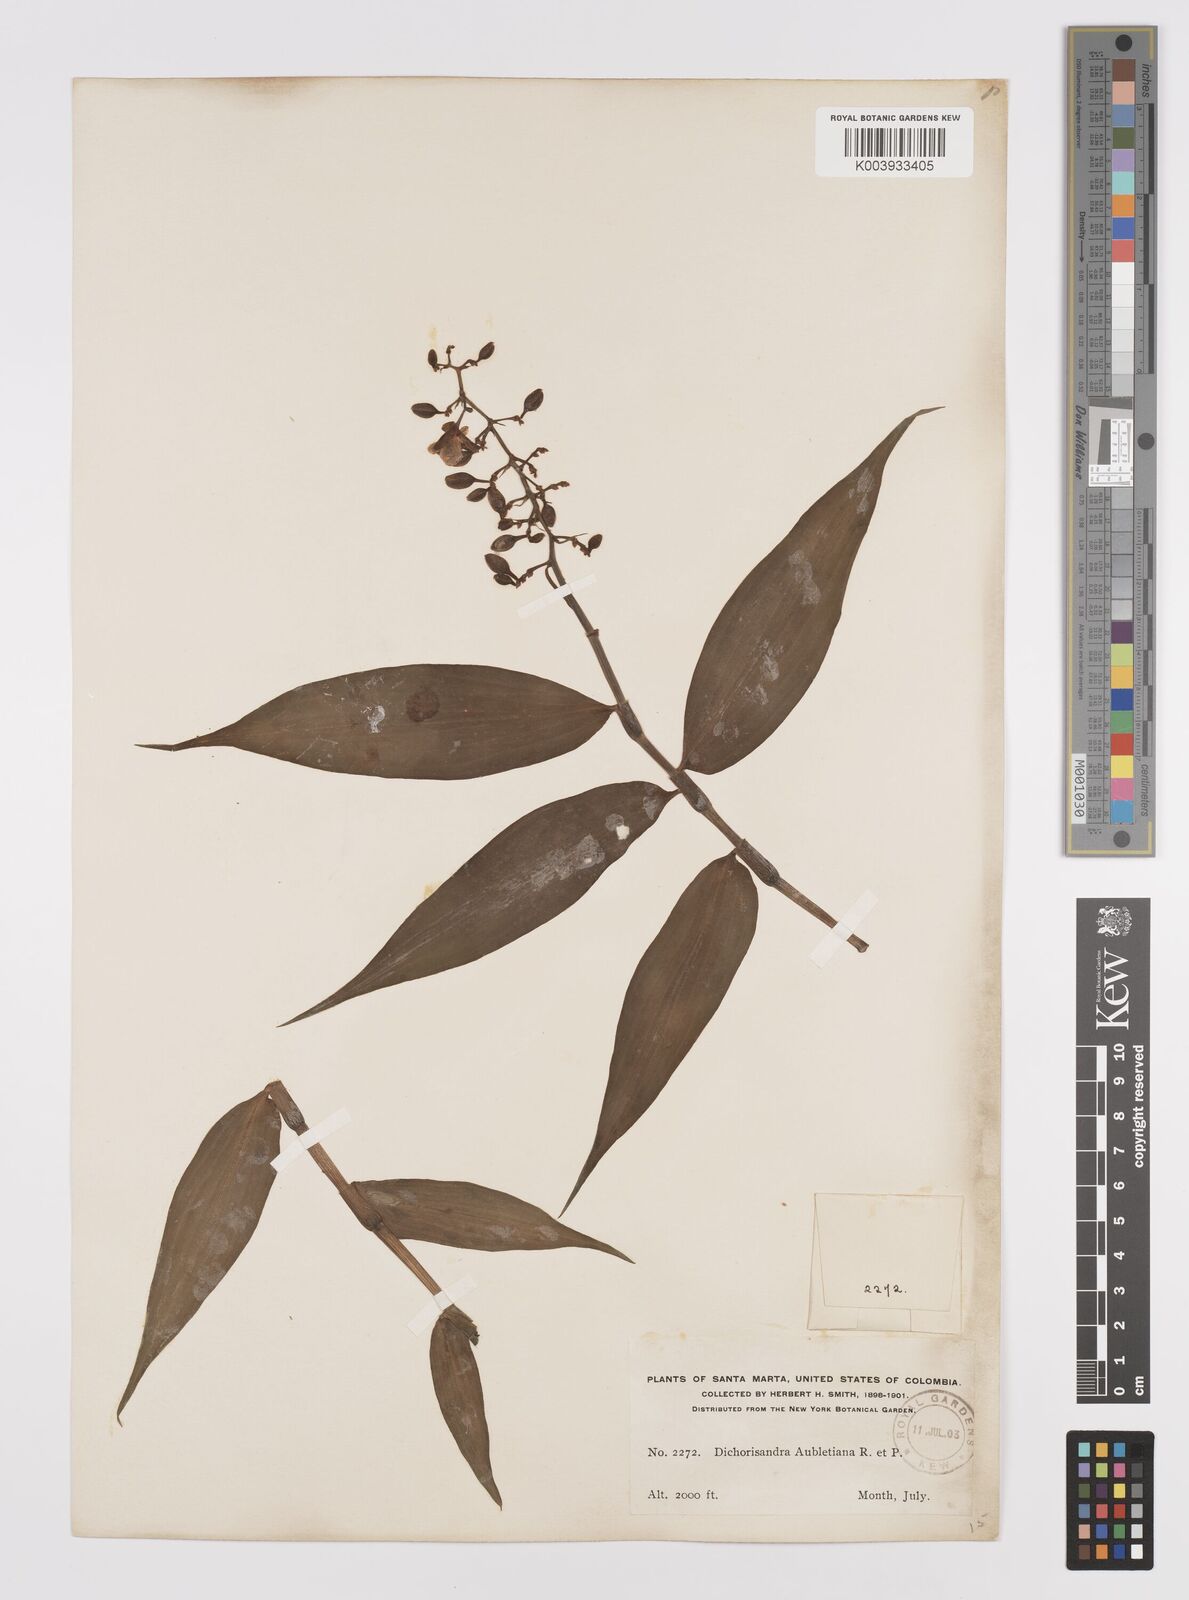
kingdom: Plantae
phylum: Tracheophyta
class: Liliopsida
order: Commelinales
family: Commelinaceae
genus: Dichorisandra
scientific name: Dichorisandra hexandra
